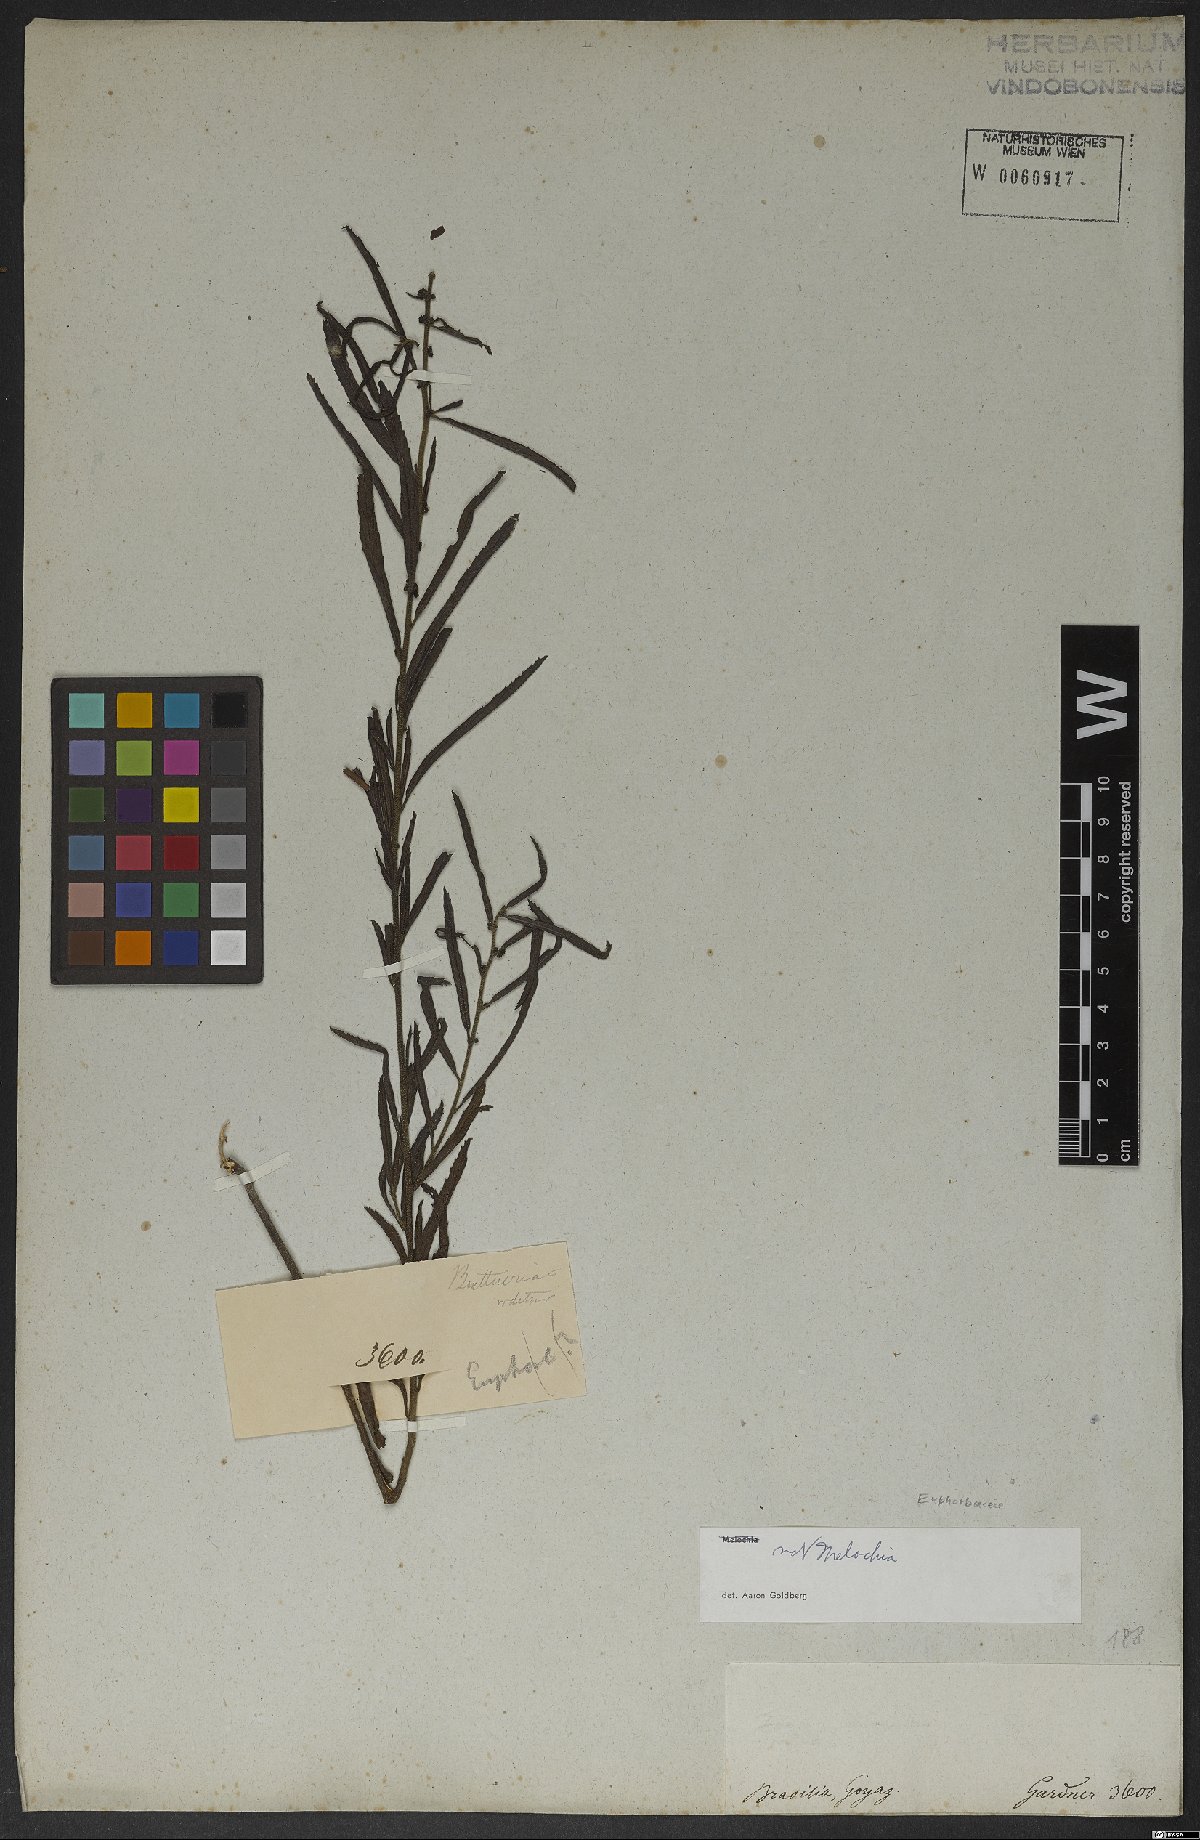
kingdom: Plantae
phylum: Tracheophyta
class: Magnoliopsida
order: Malvales
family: Malvaceae
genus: Ayenia
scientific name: Ayenia angustifolia
